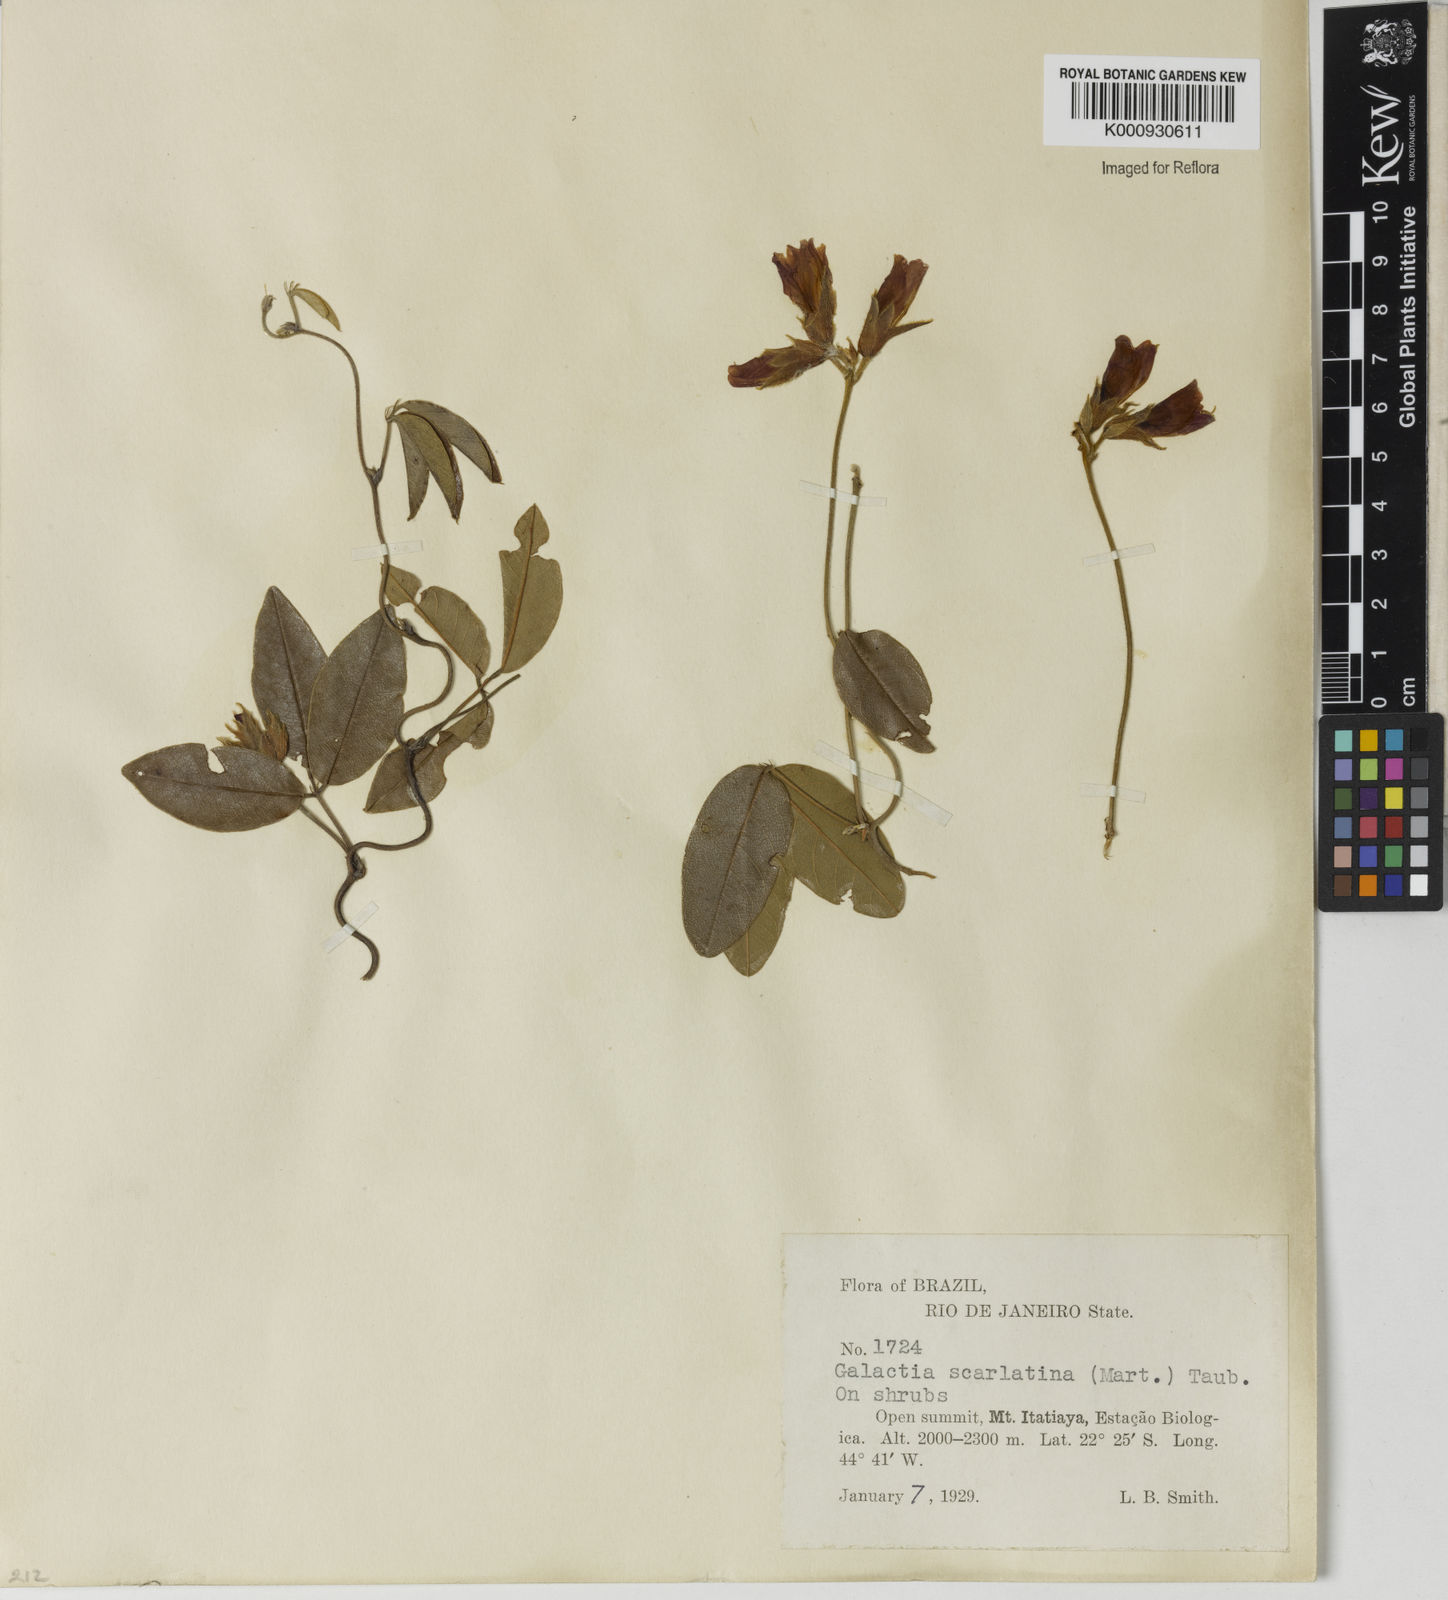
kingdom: Plantae
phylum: Tracheophyta
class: Magnoliopsida
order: Fabales
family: Fabaceae
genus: Betencourtia
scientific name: Betencourtia scarlatina
